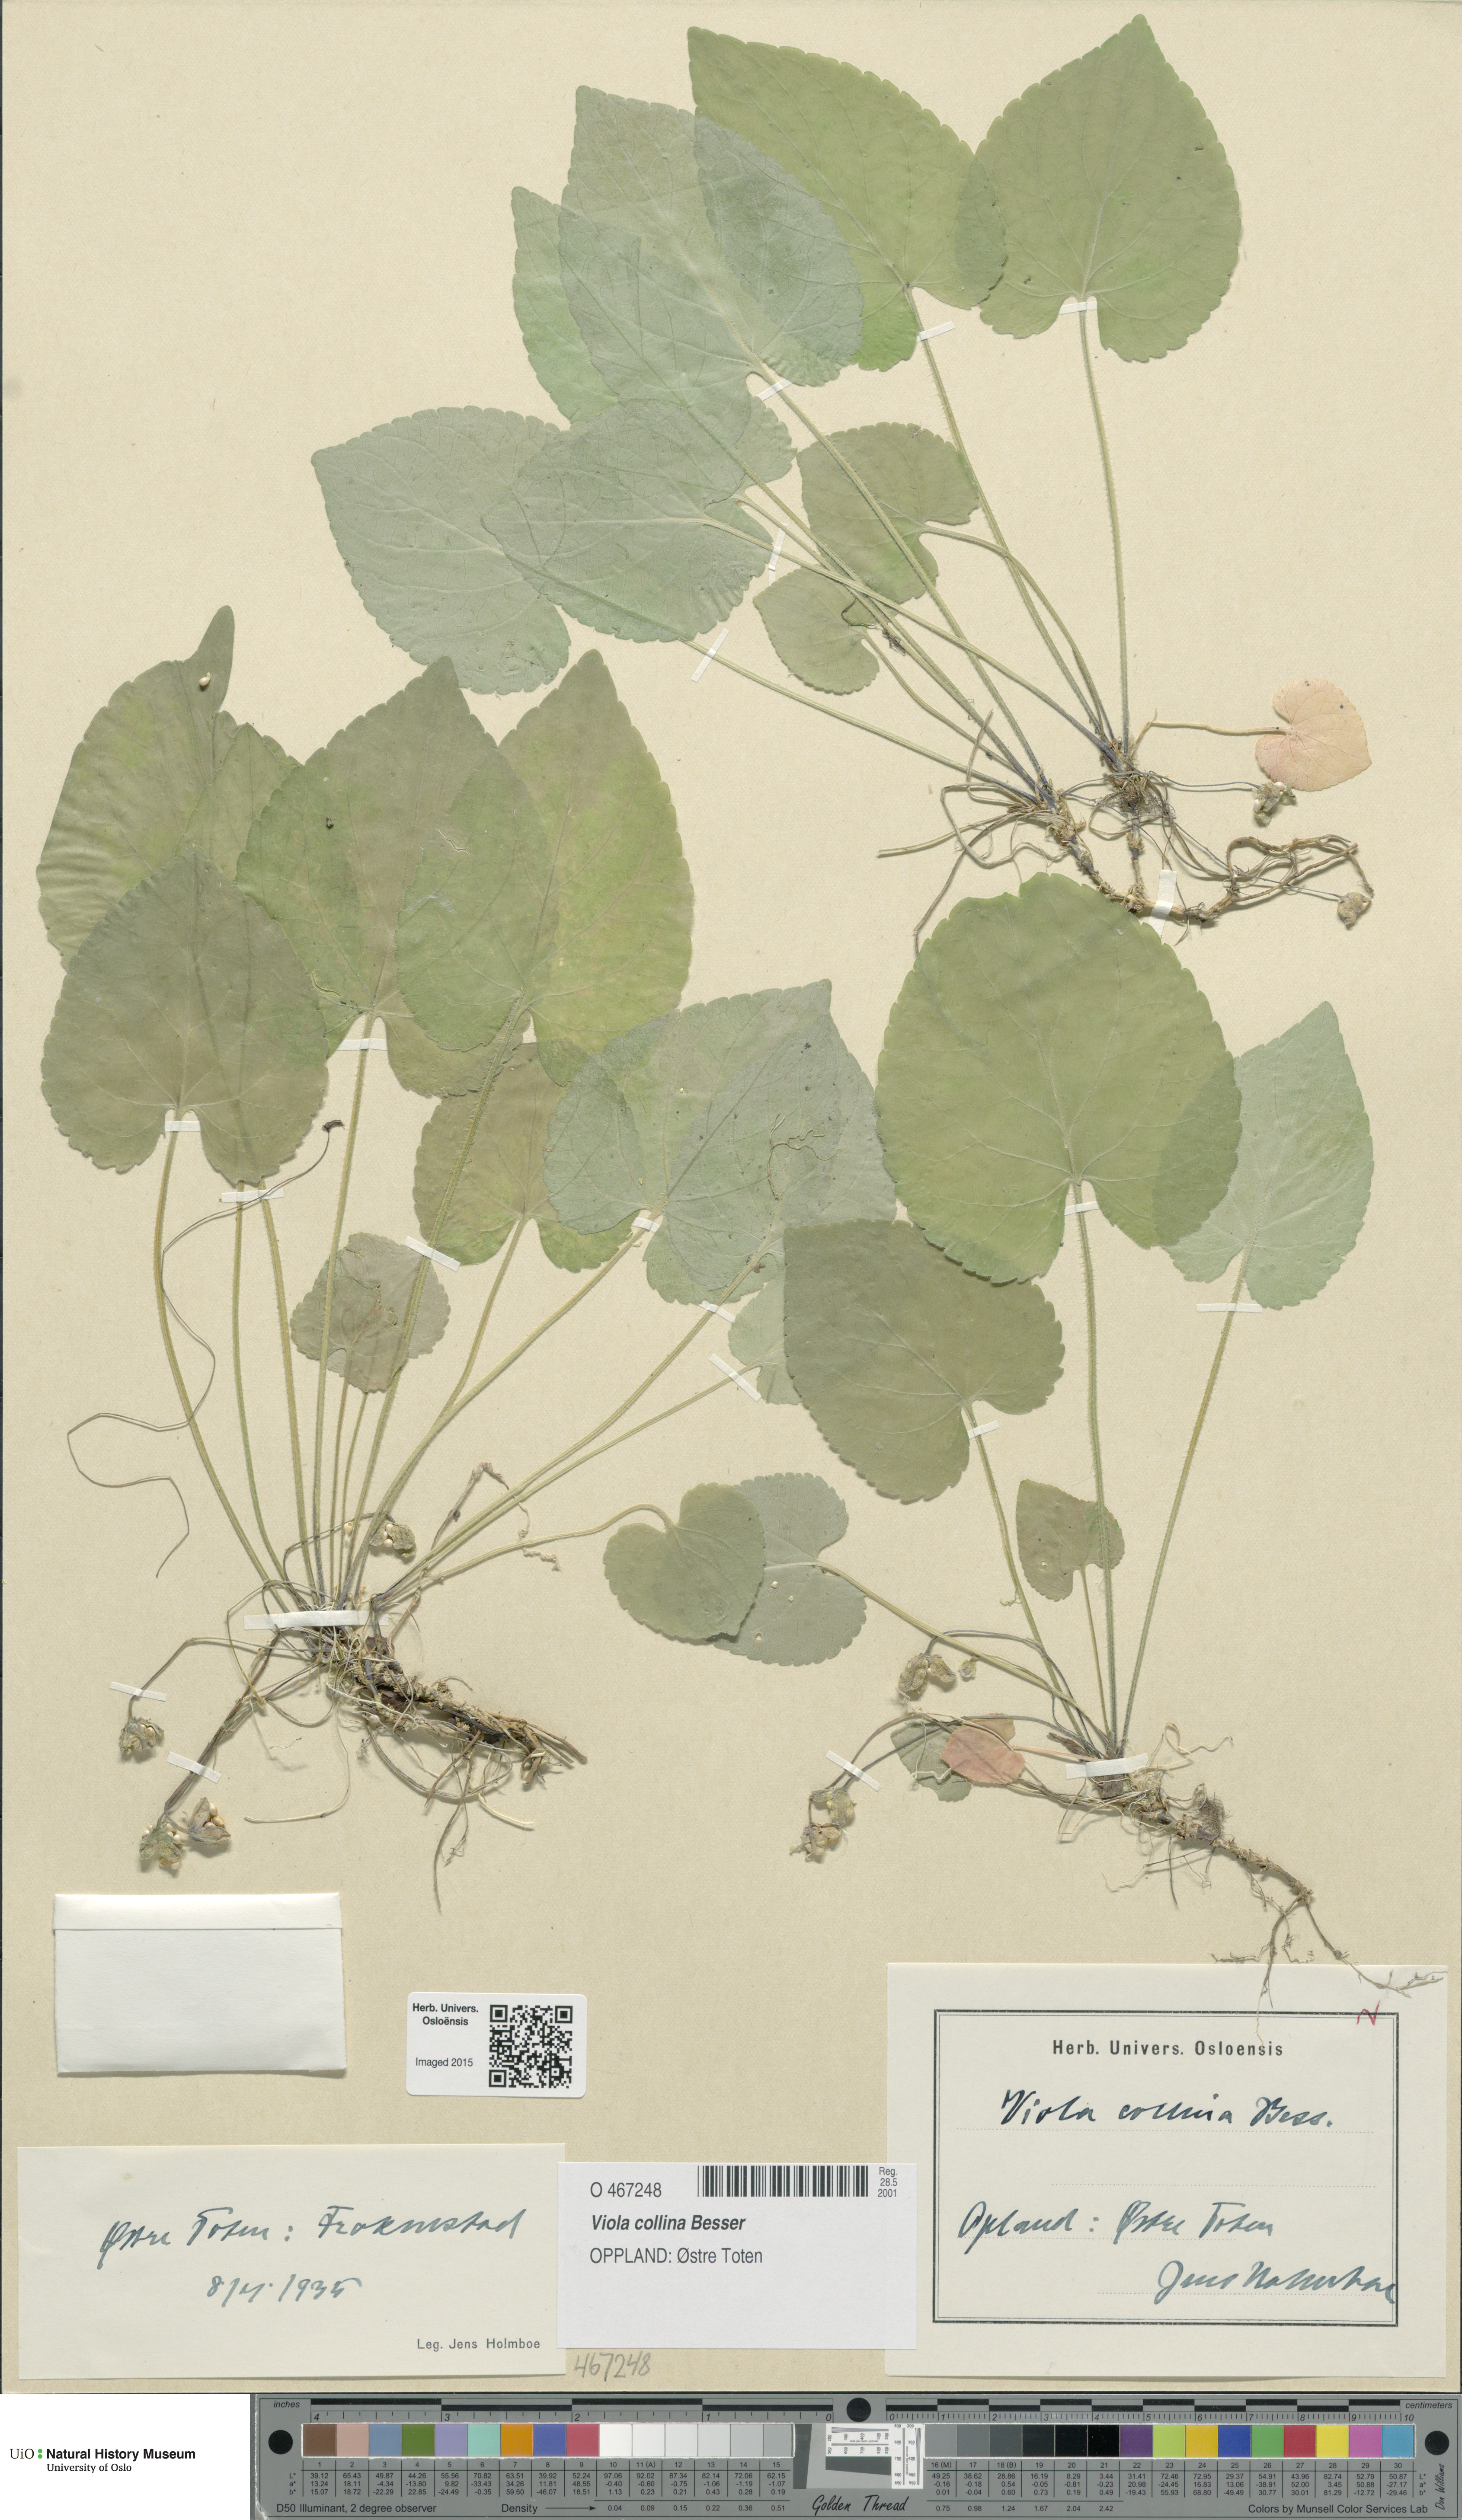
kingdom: Plantae
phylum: Tracheophyta
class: Magnoliopsida
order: Malpighiales
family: Violaceae
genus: Viola
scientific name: Viola collina
